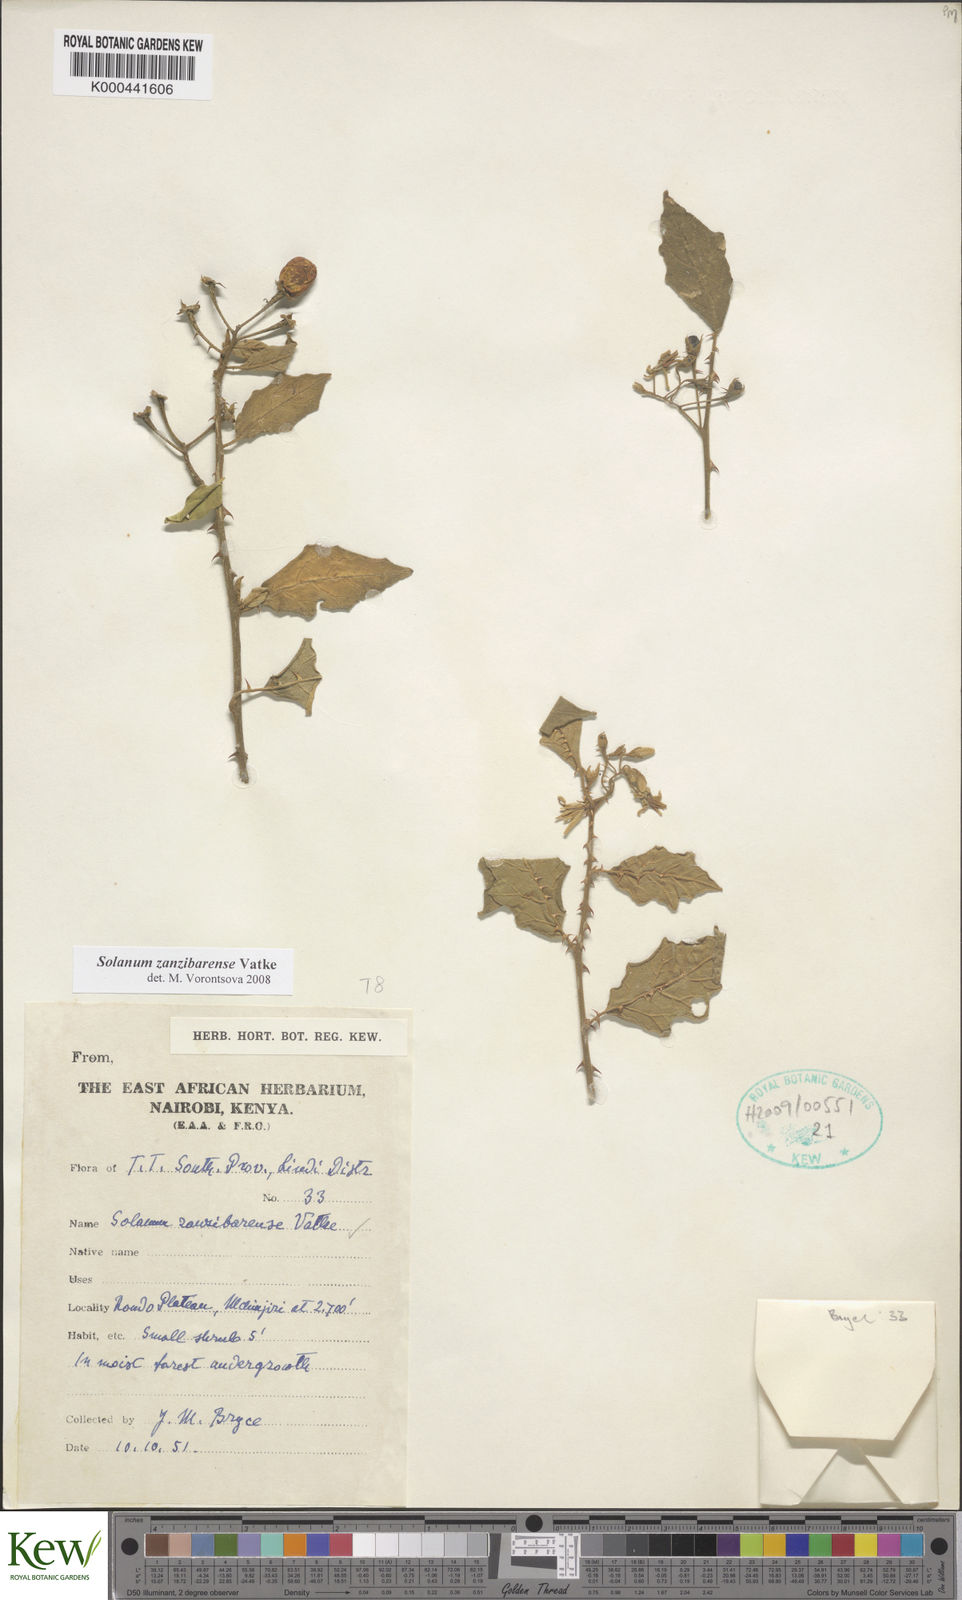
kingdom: Plantae
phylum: Tracheophyta
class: Magnoliopsida
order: Solanales
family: Solanaceae
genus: Solanum
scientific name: Solanum zanzibarense
